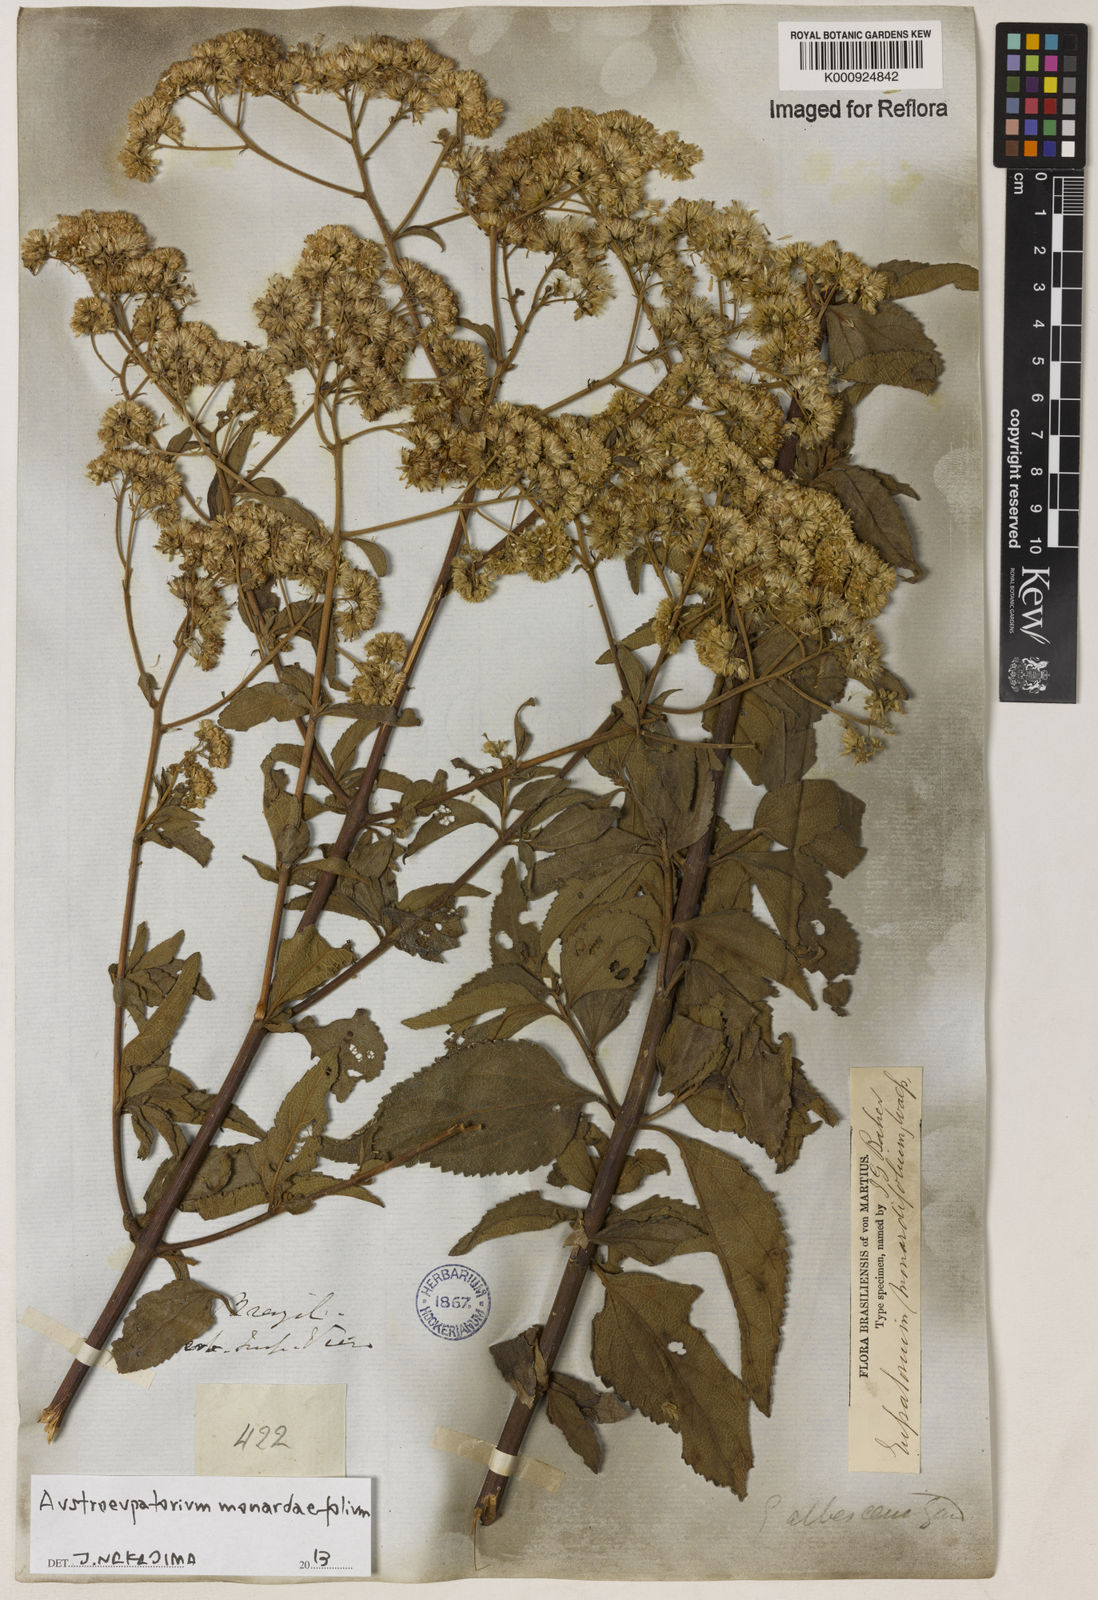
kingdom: Plantae
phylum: Tracheophyta
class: Magnoliopsida
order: Asterales
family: Asteraceae
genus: Austroeupatorium
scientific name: Austroeupatorium
